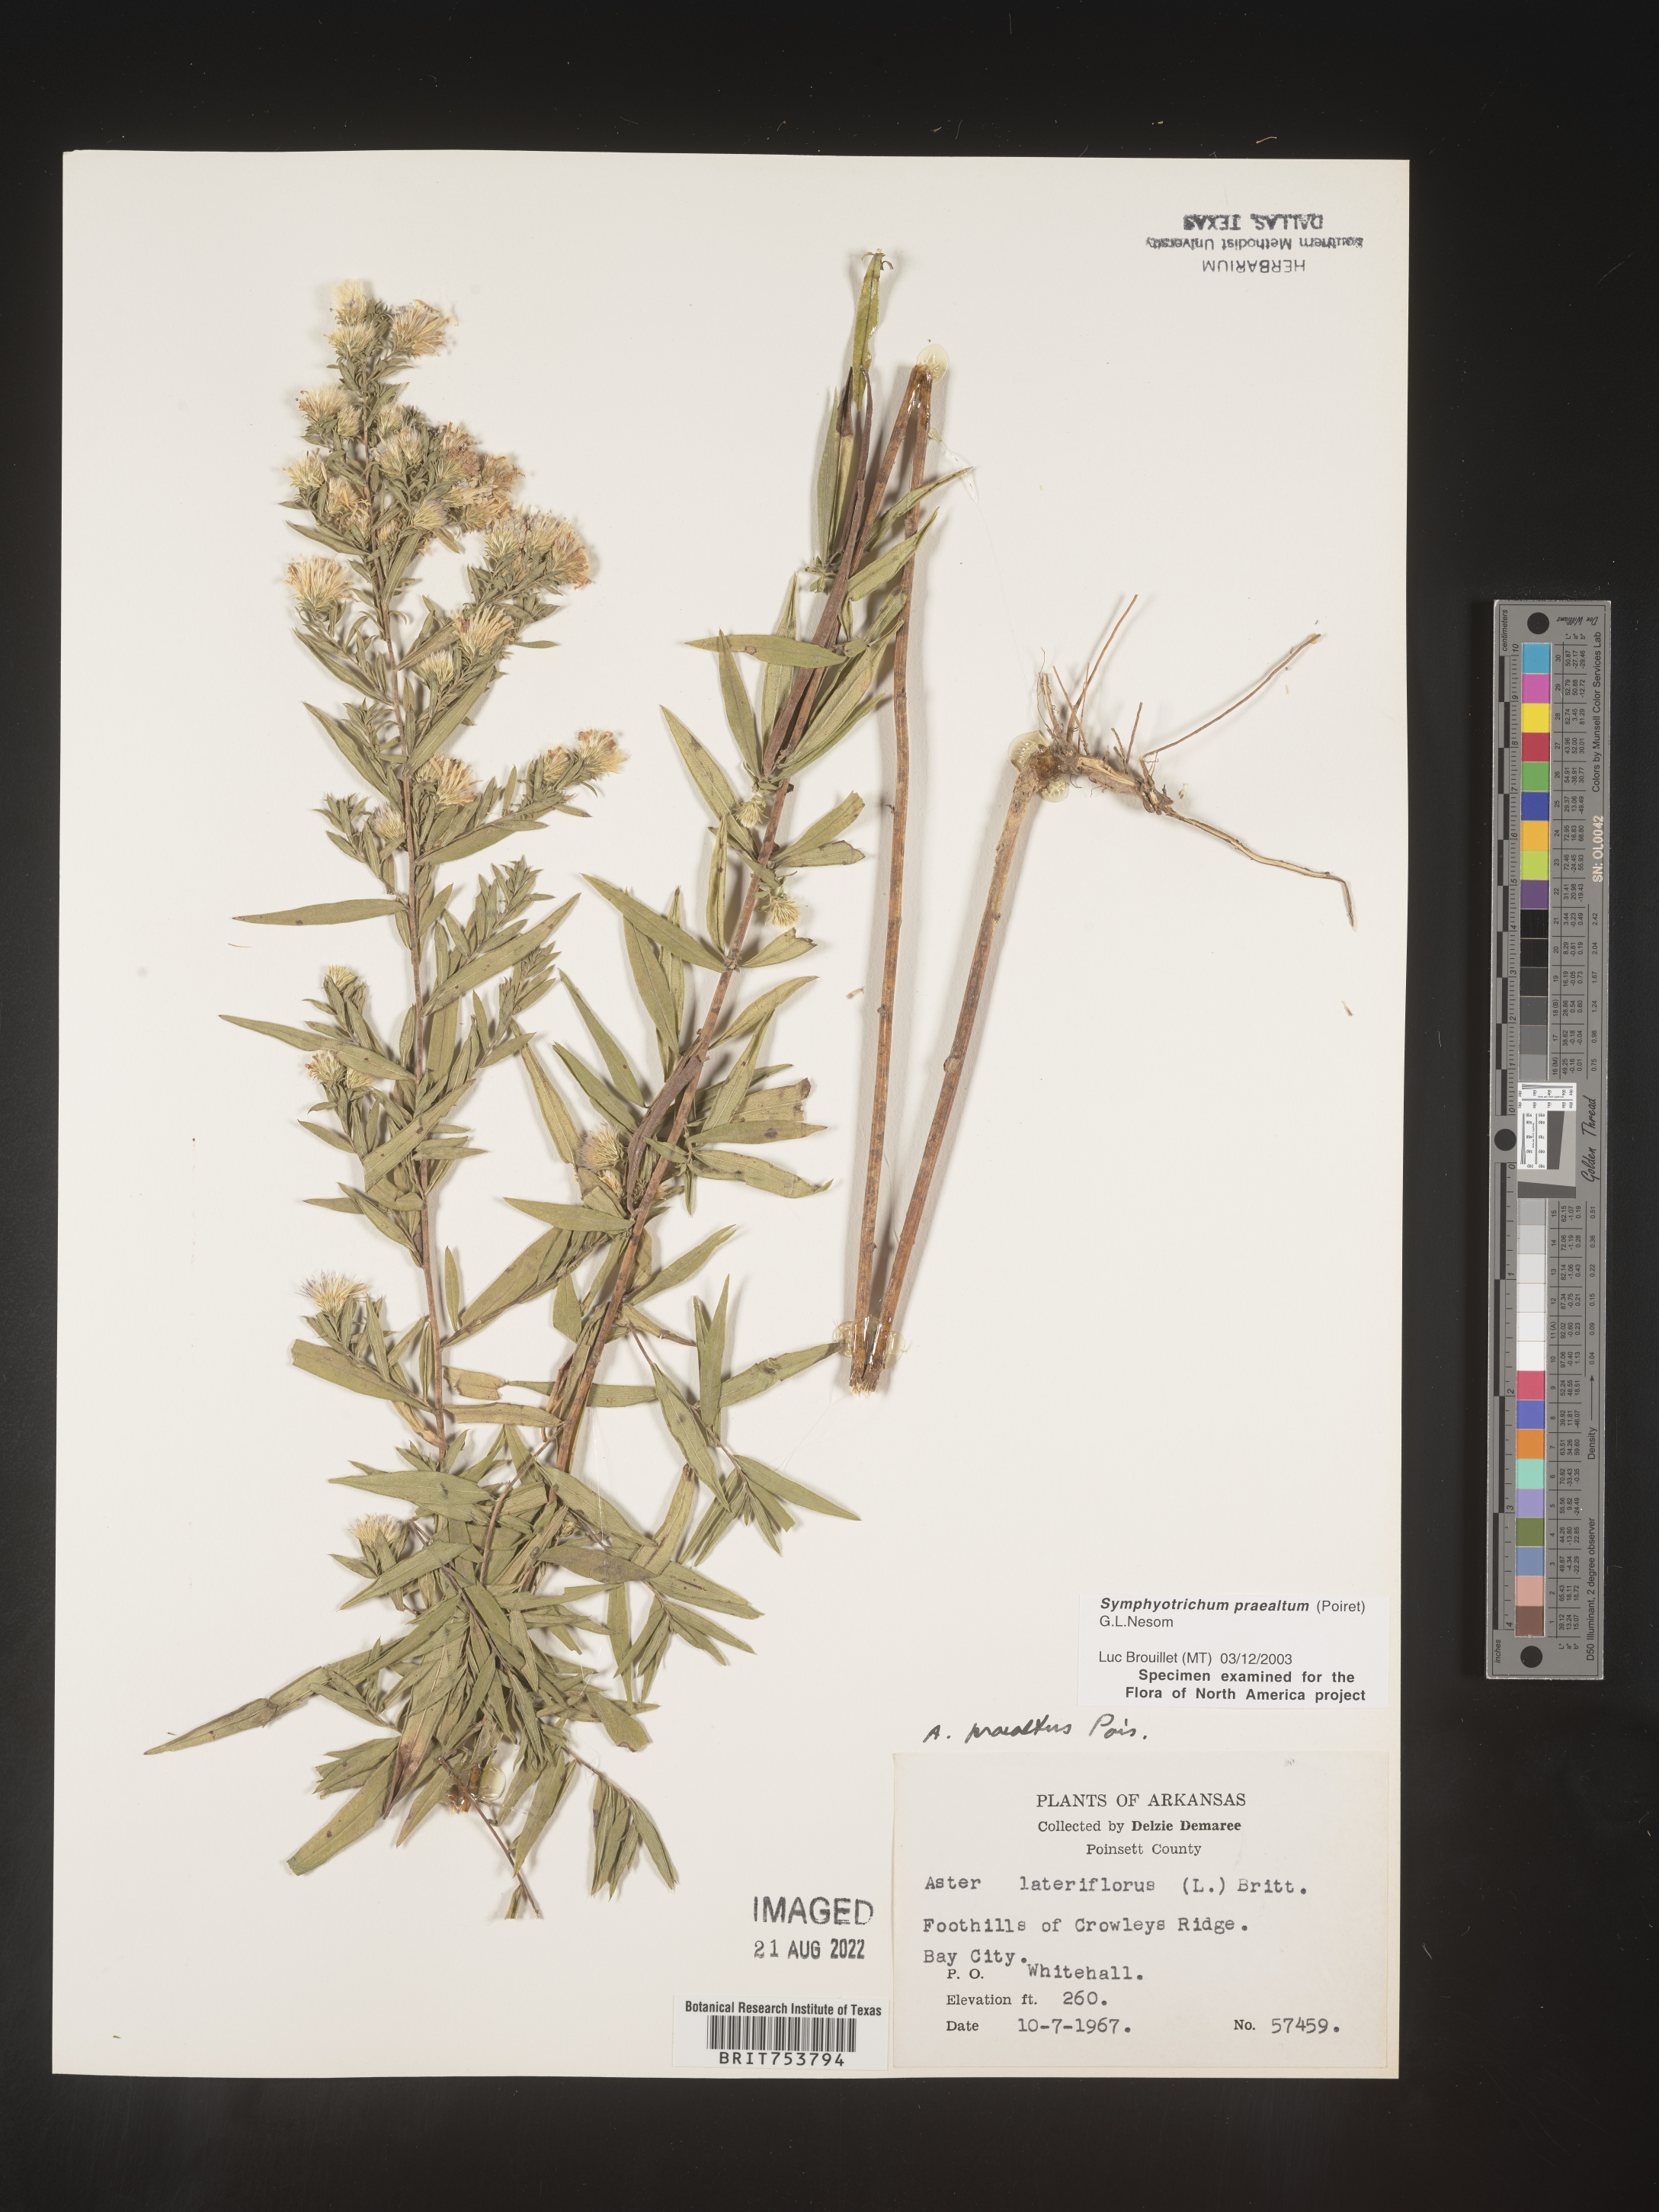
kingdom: Plantae
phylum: Tracheophyta
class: Magnoliopsida
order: Asterales
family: Asteraceae
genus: Symphyotrichum
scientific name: Symphyotrichum praealtum
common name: Willow aster
